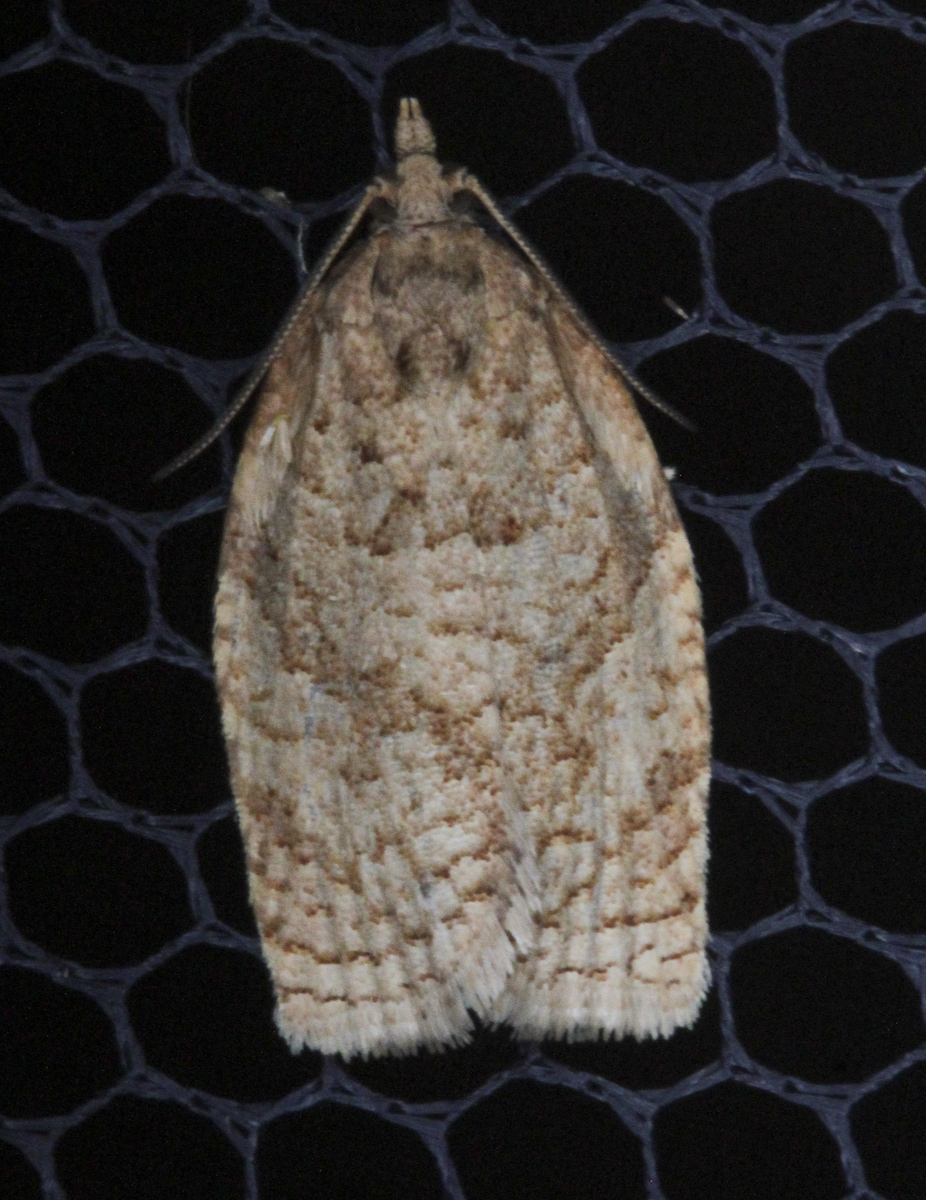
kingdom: Animalia
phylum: Arthropoda
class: Insecta
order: Lepidoptera
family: Tortricidae
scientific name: Tortricidae
